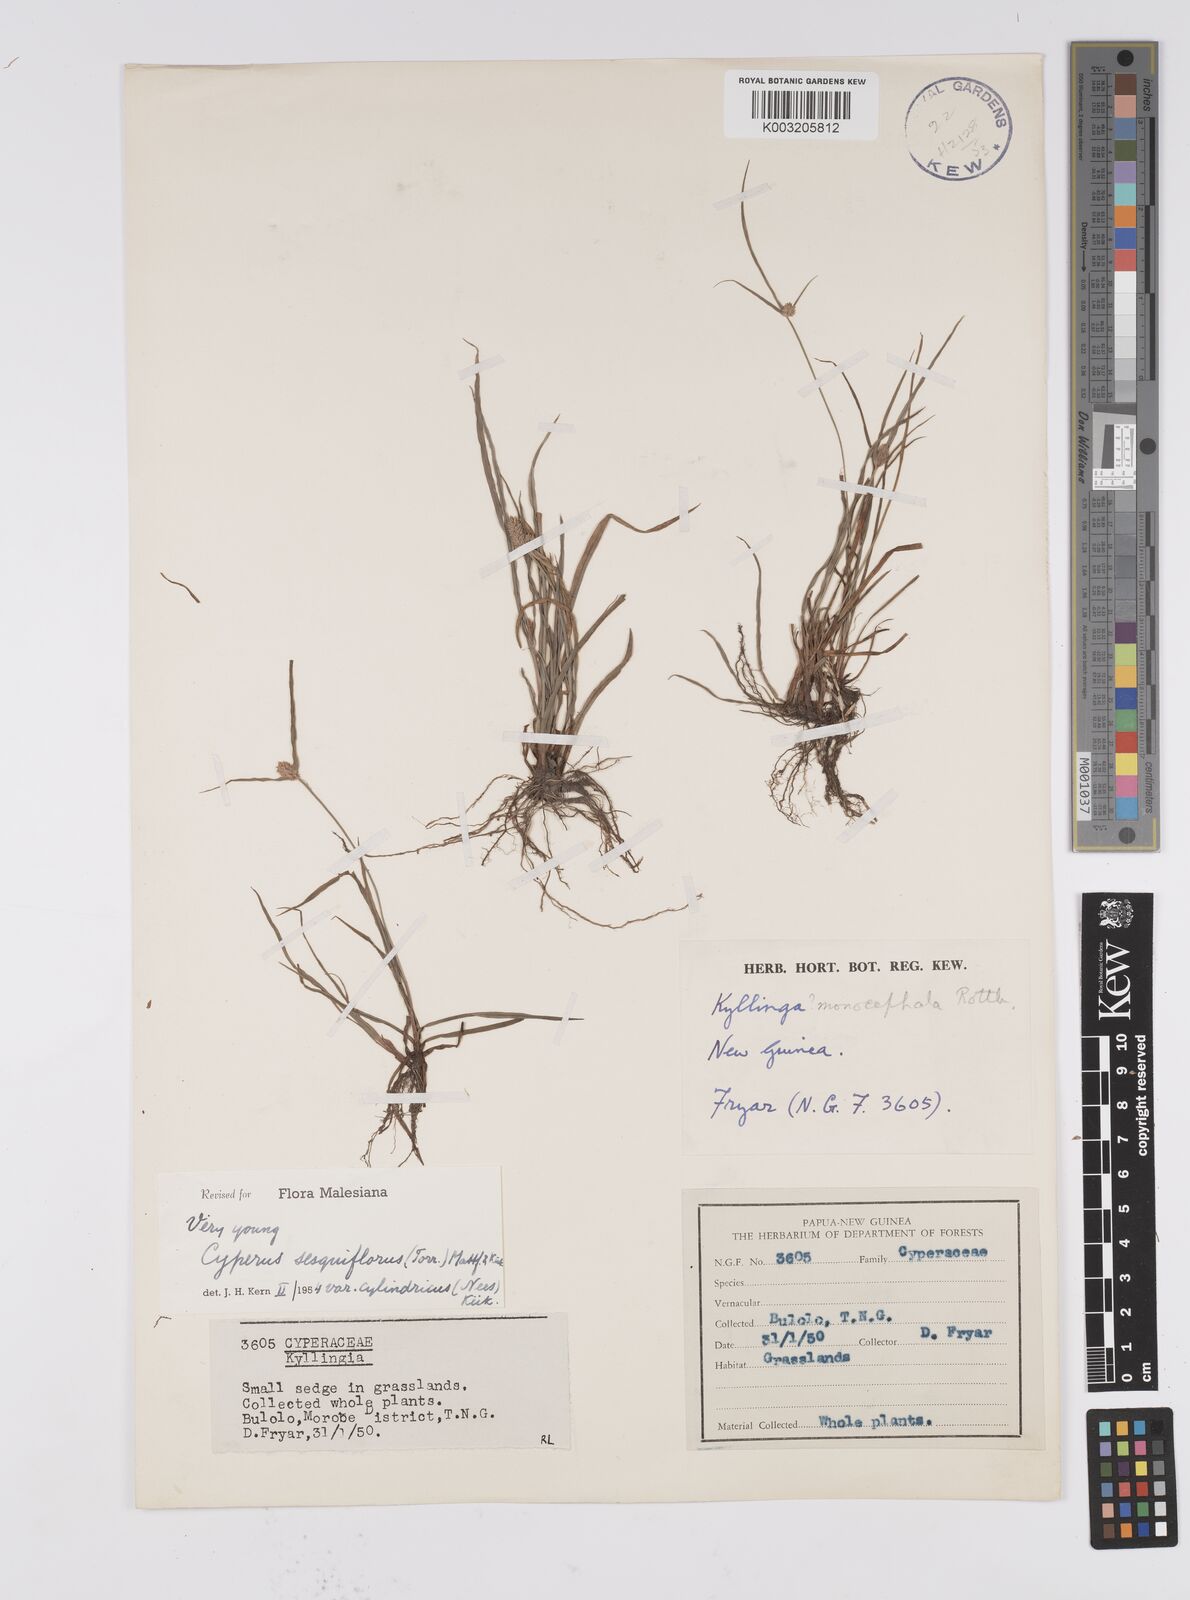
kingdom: Plantae
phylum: Tracheophyta
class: Liliopsida
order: Poales
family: Cyperaceae
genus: Cyperus
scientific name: Cyperus odoratus
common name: Fragrant flatsedge
